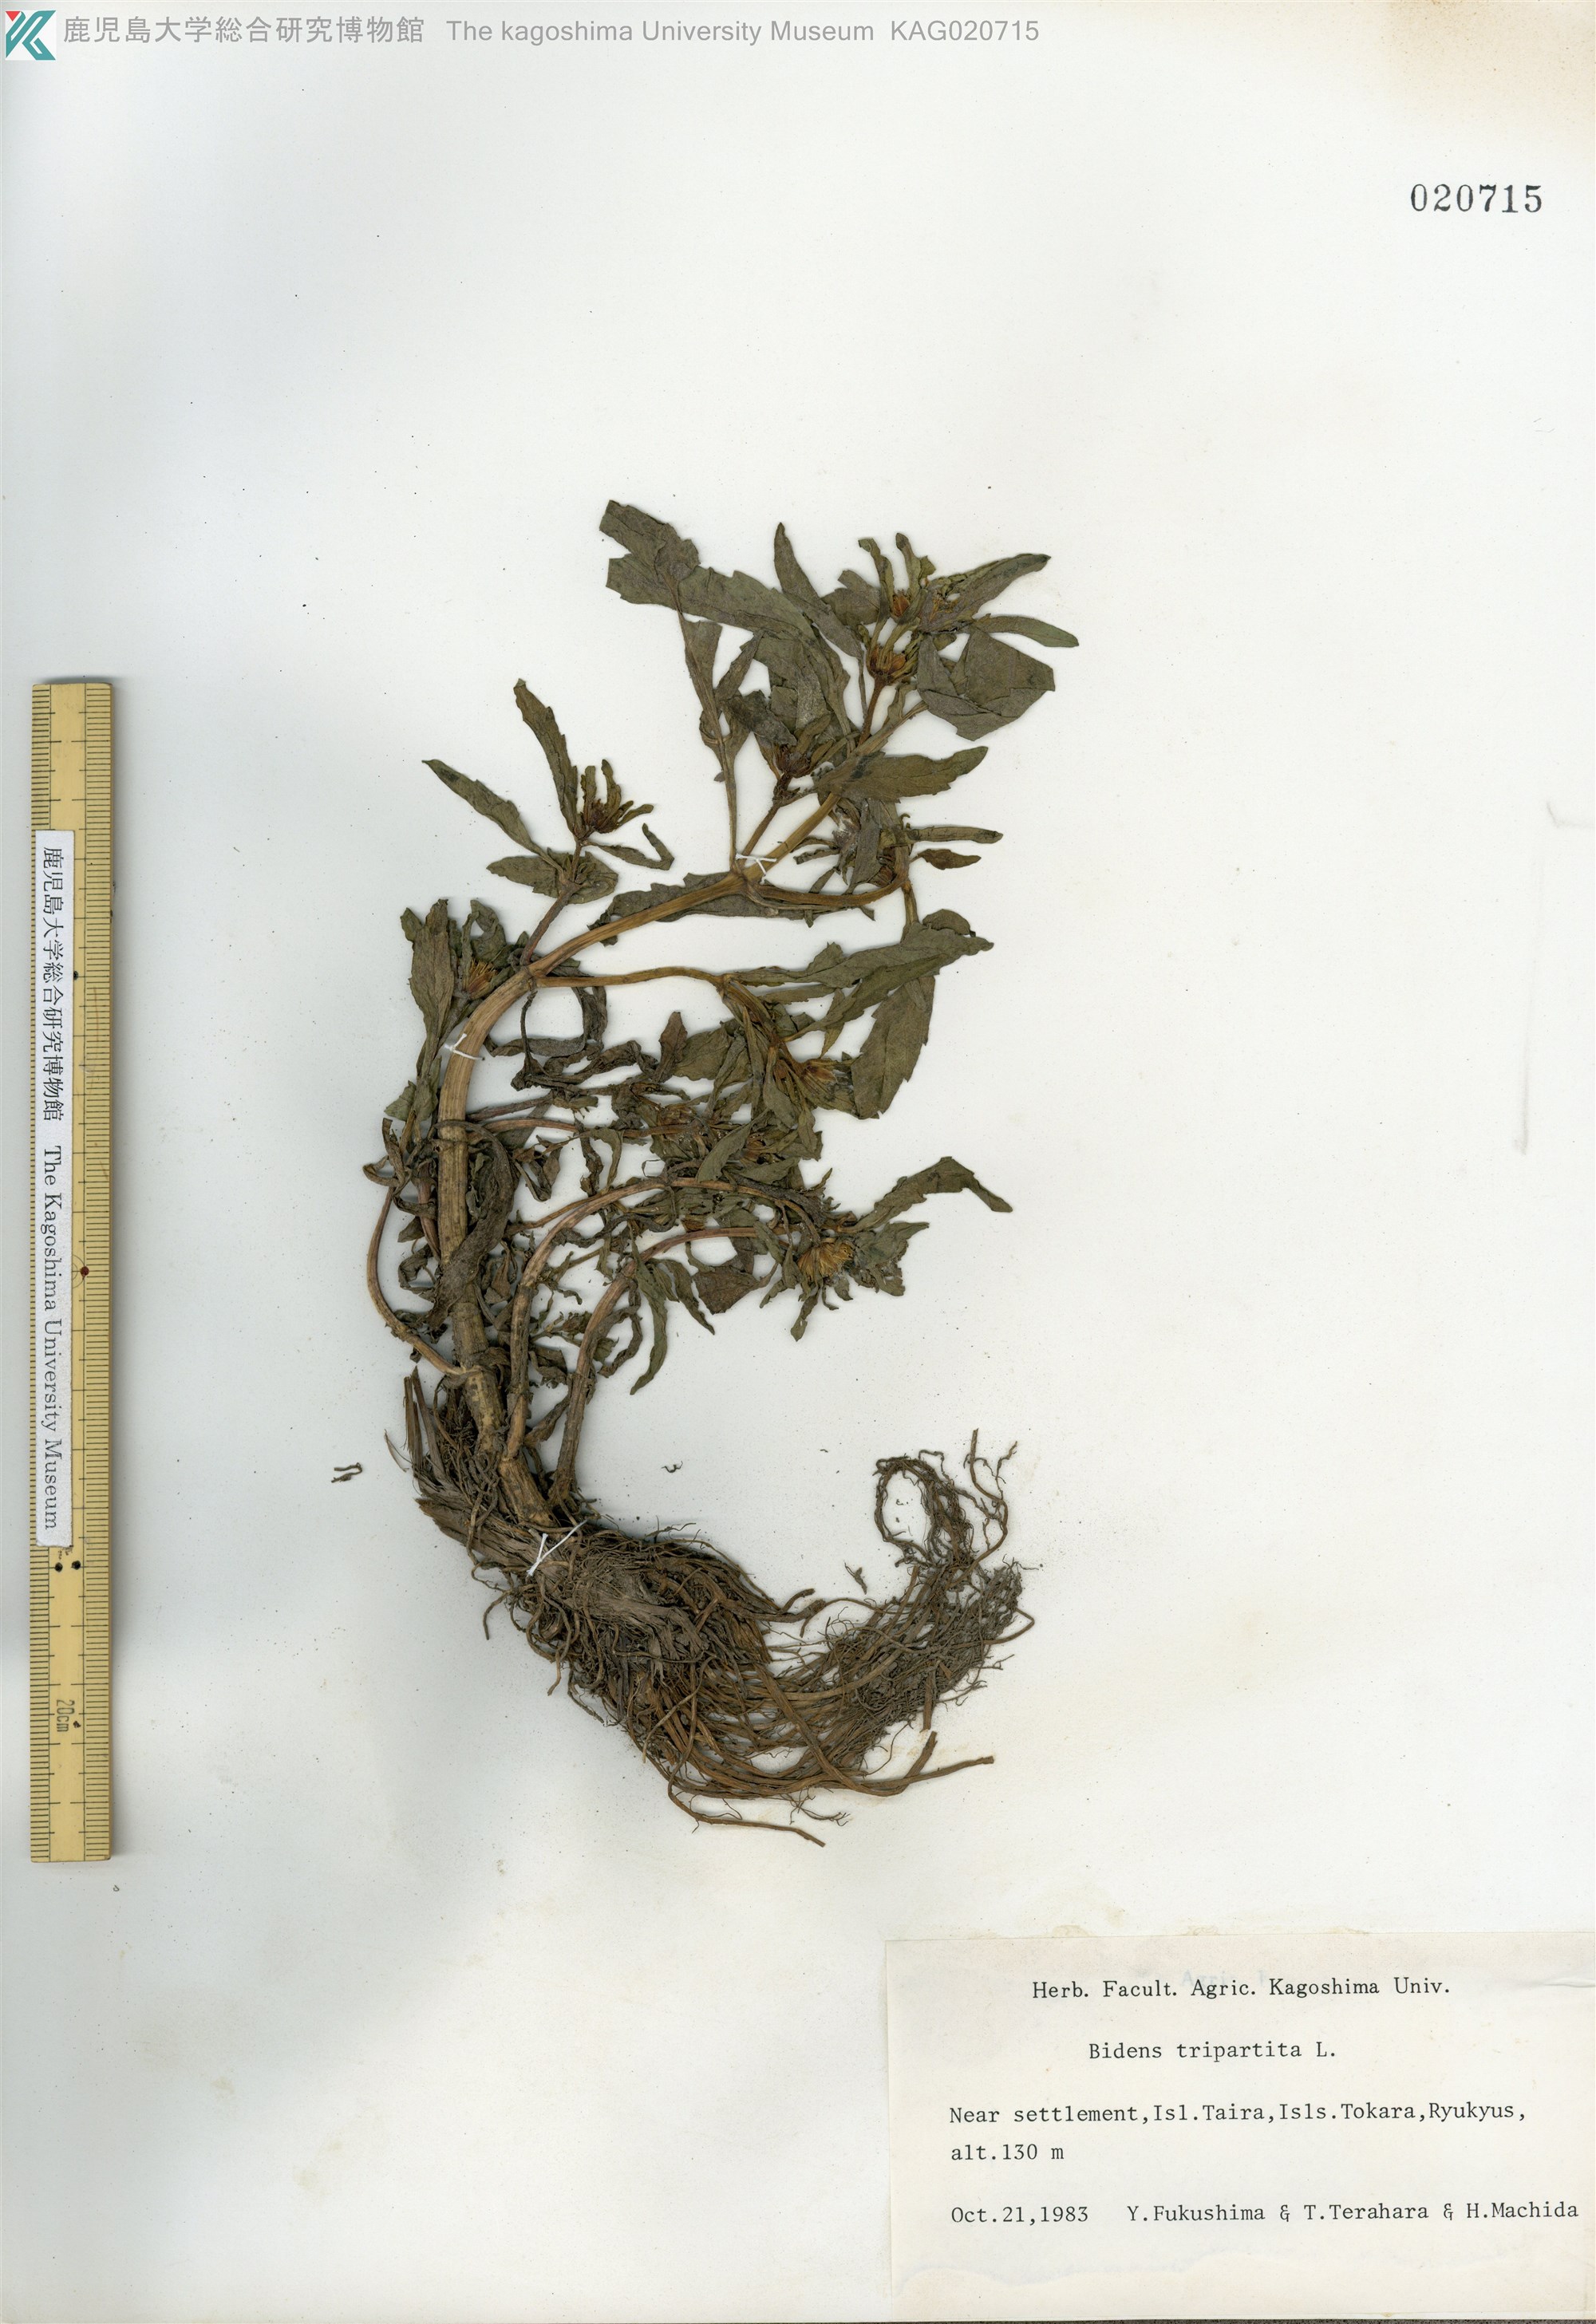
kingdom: Plantae
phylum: Tracheophyta
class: Magnoliopsida
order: Asterales
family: Asteraceae
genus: Bidens
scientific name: Bidens tripartita
